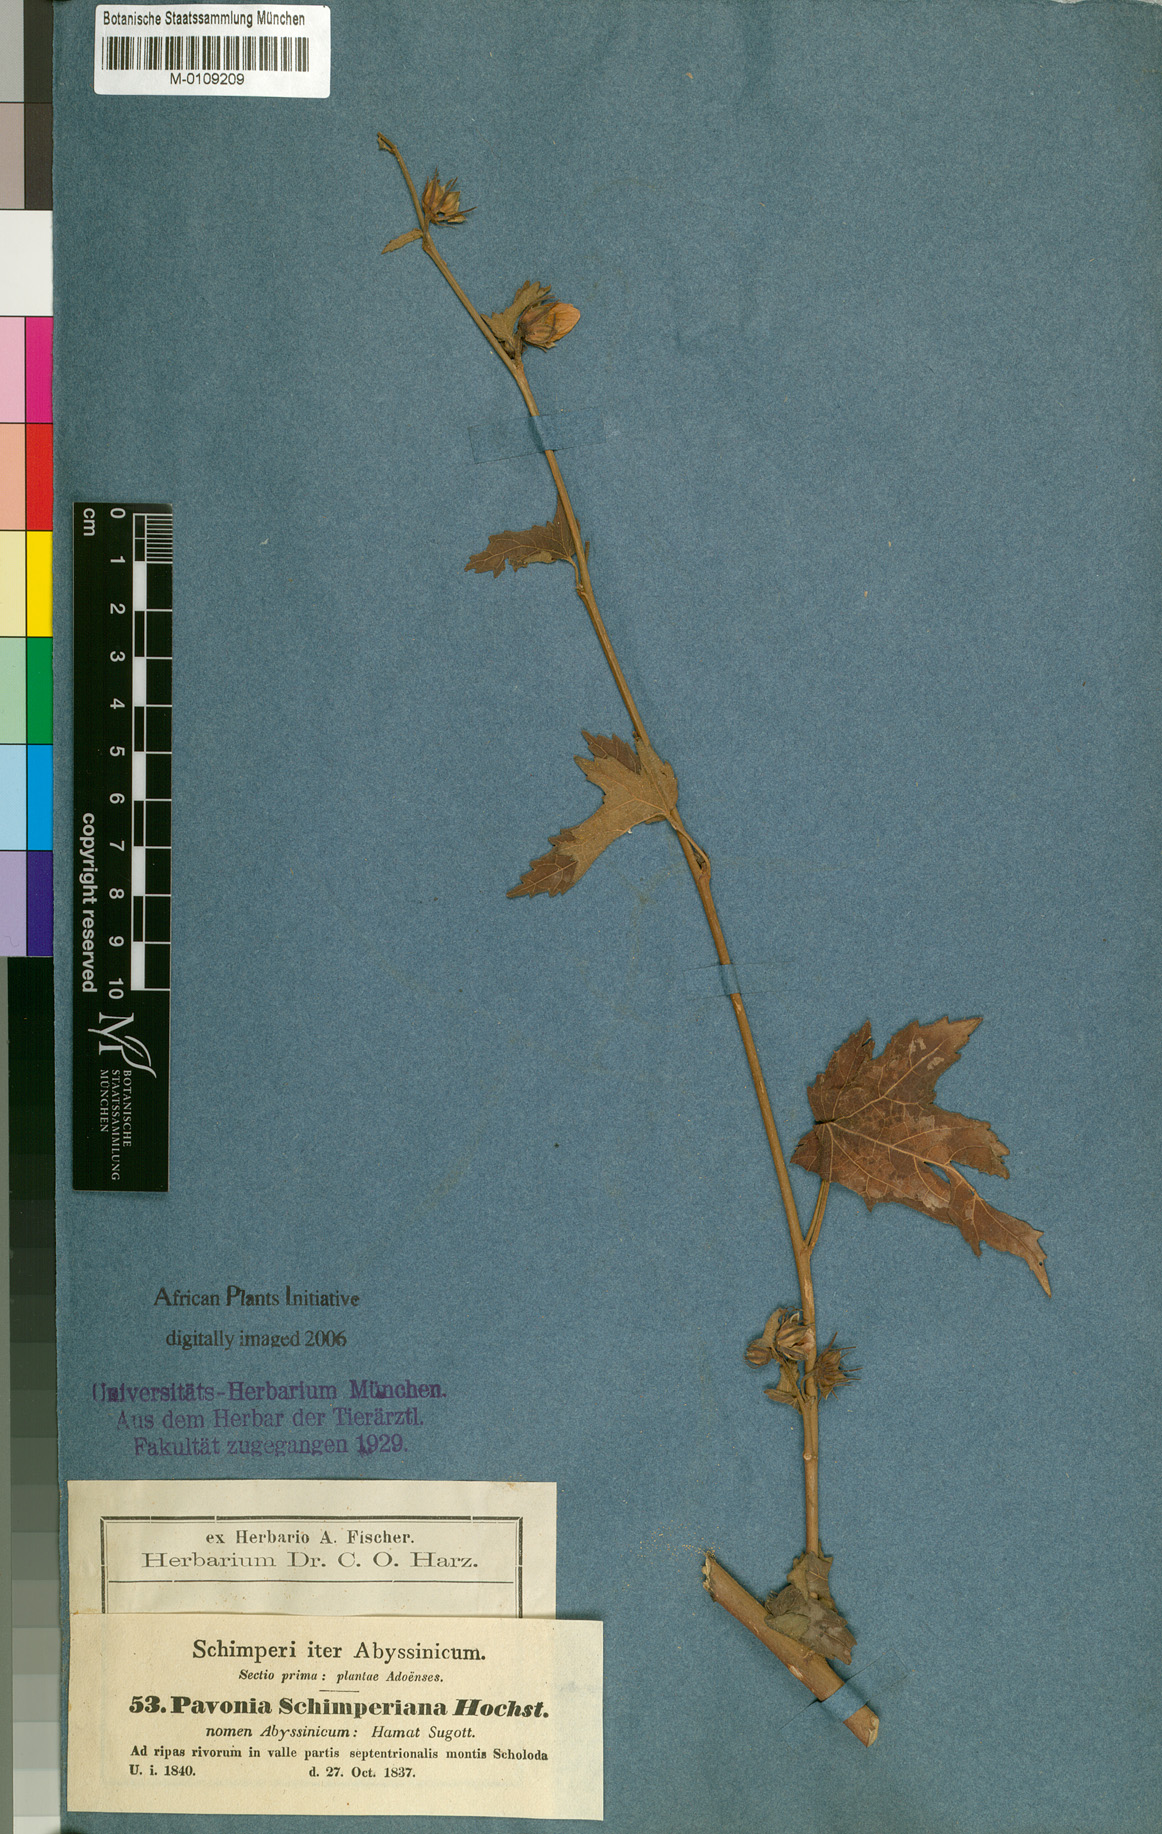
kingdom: Plantae
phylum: Tracheophyta
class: Magnoliopsida
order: Malvales
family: Malvaceae
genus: Pavonia
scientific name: Pavonia schimperiana
